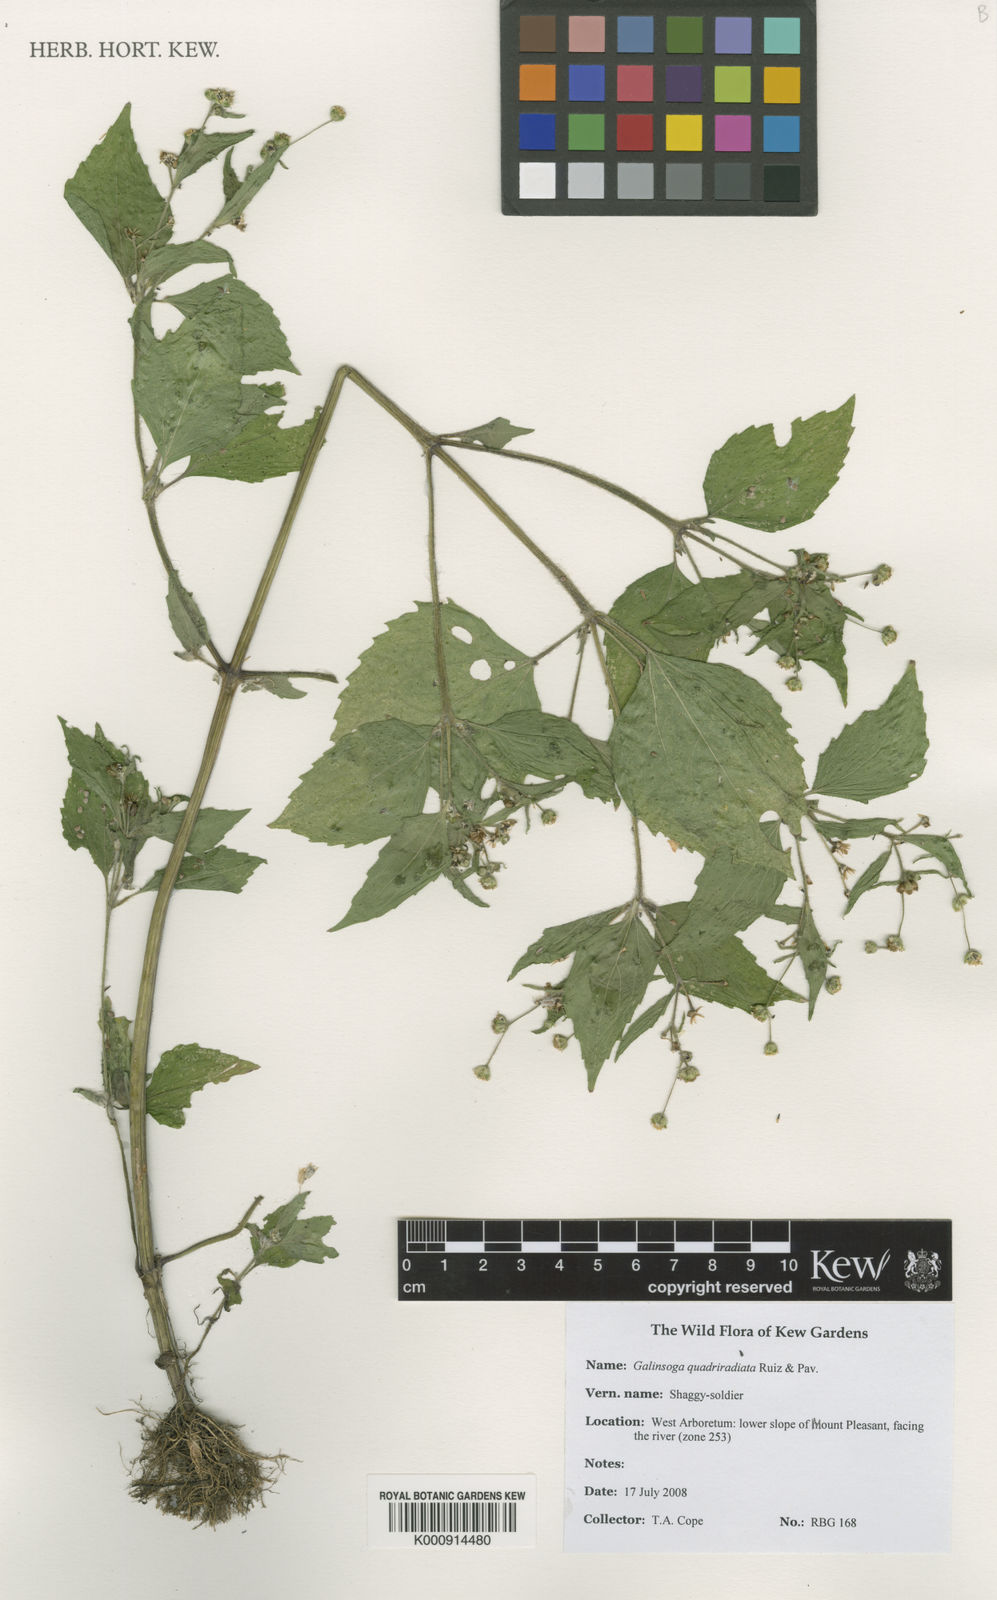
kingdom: Plantae
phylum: Tracheophyta
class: Magnoliopsida
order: Asterales
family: Asteraceae
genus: Galinsoga
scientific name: Galinsoga quadriradiata
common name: Shaggy soldier
